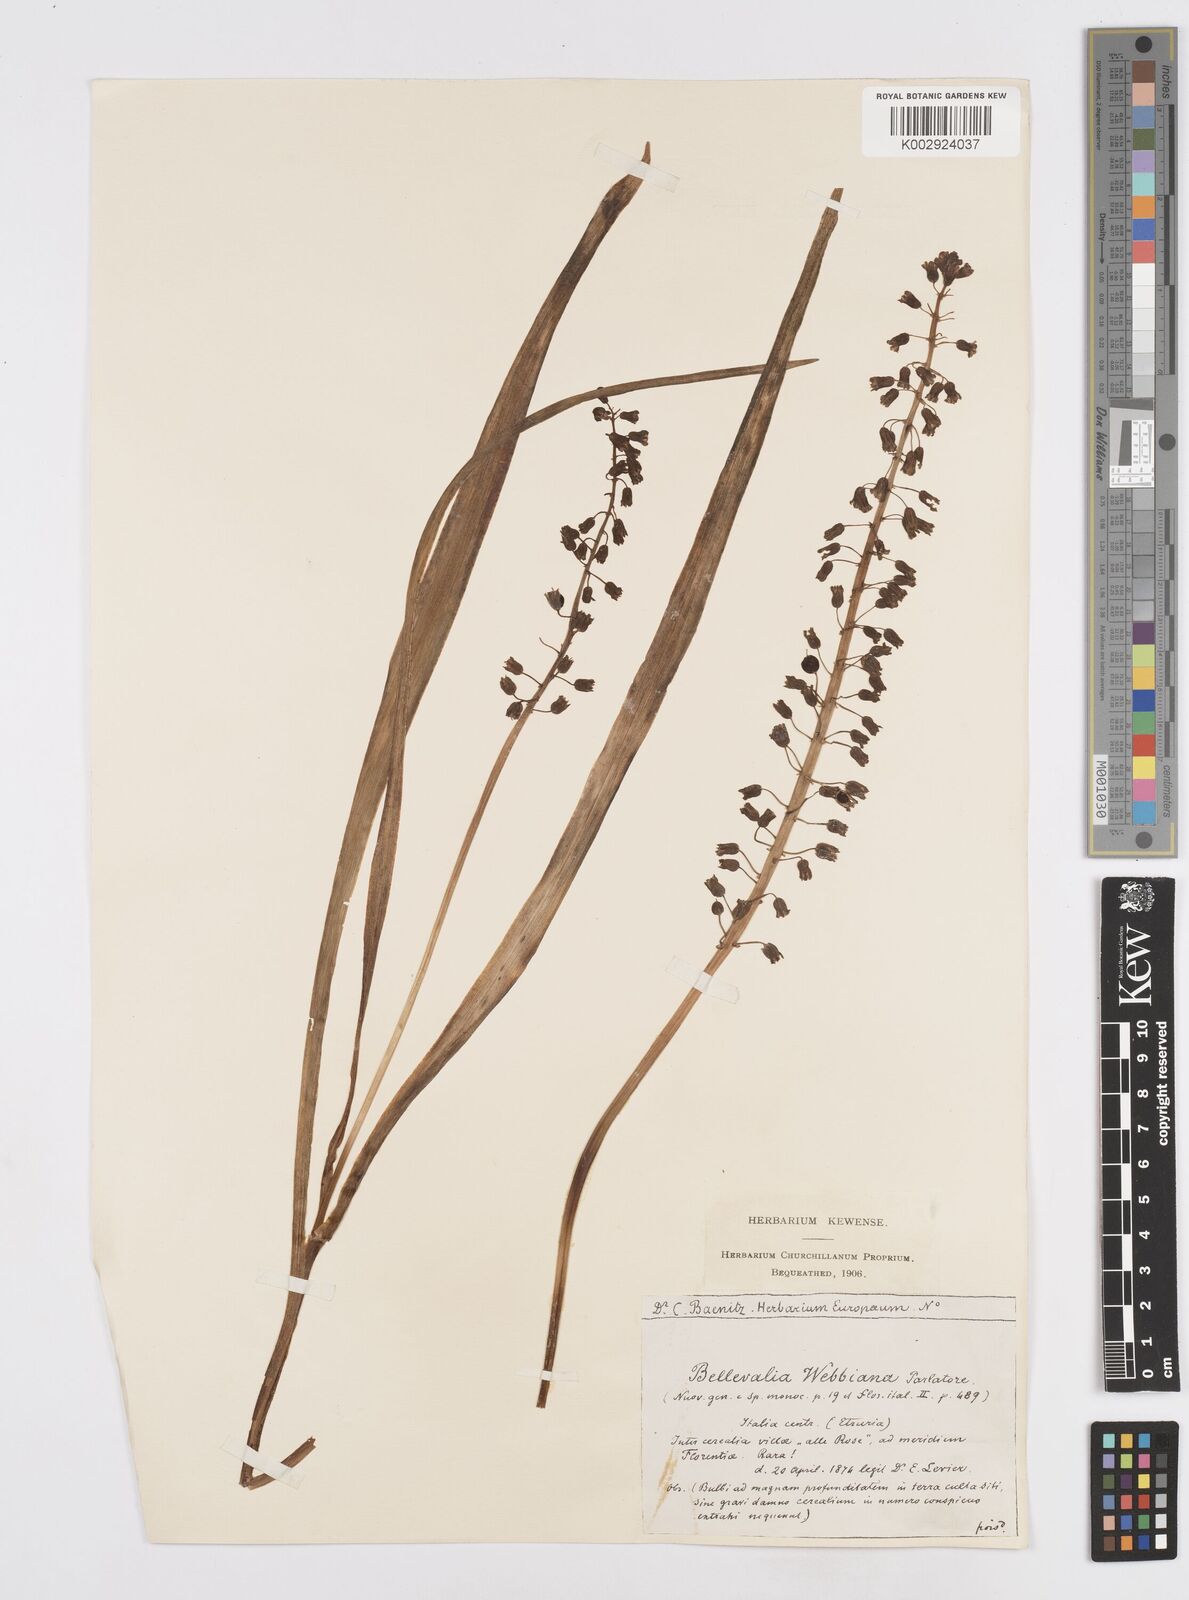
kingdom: Plantae
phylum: Tracheophyta
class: Liliopsida
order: Asparagales
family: Asparagaceae
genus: Bellevalia
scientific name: Bellevalia dubia
